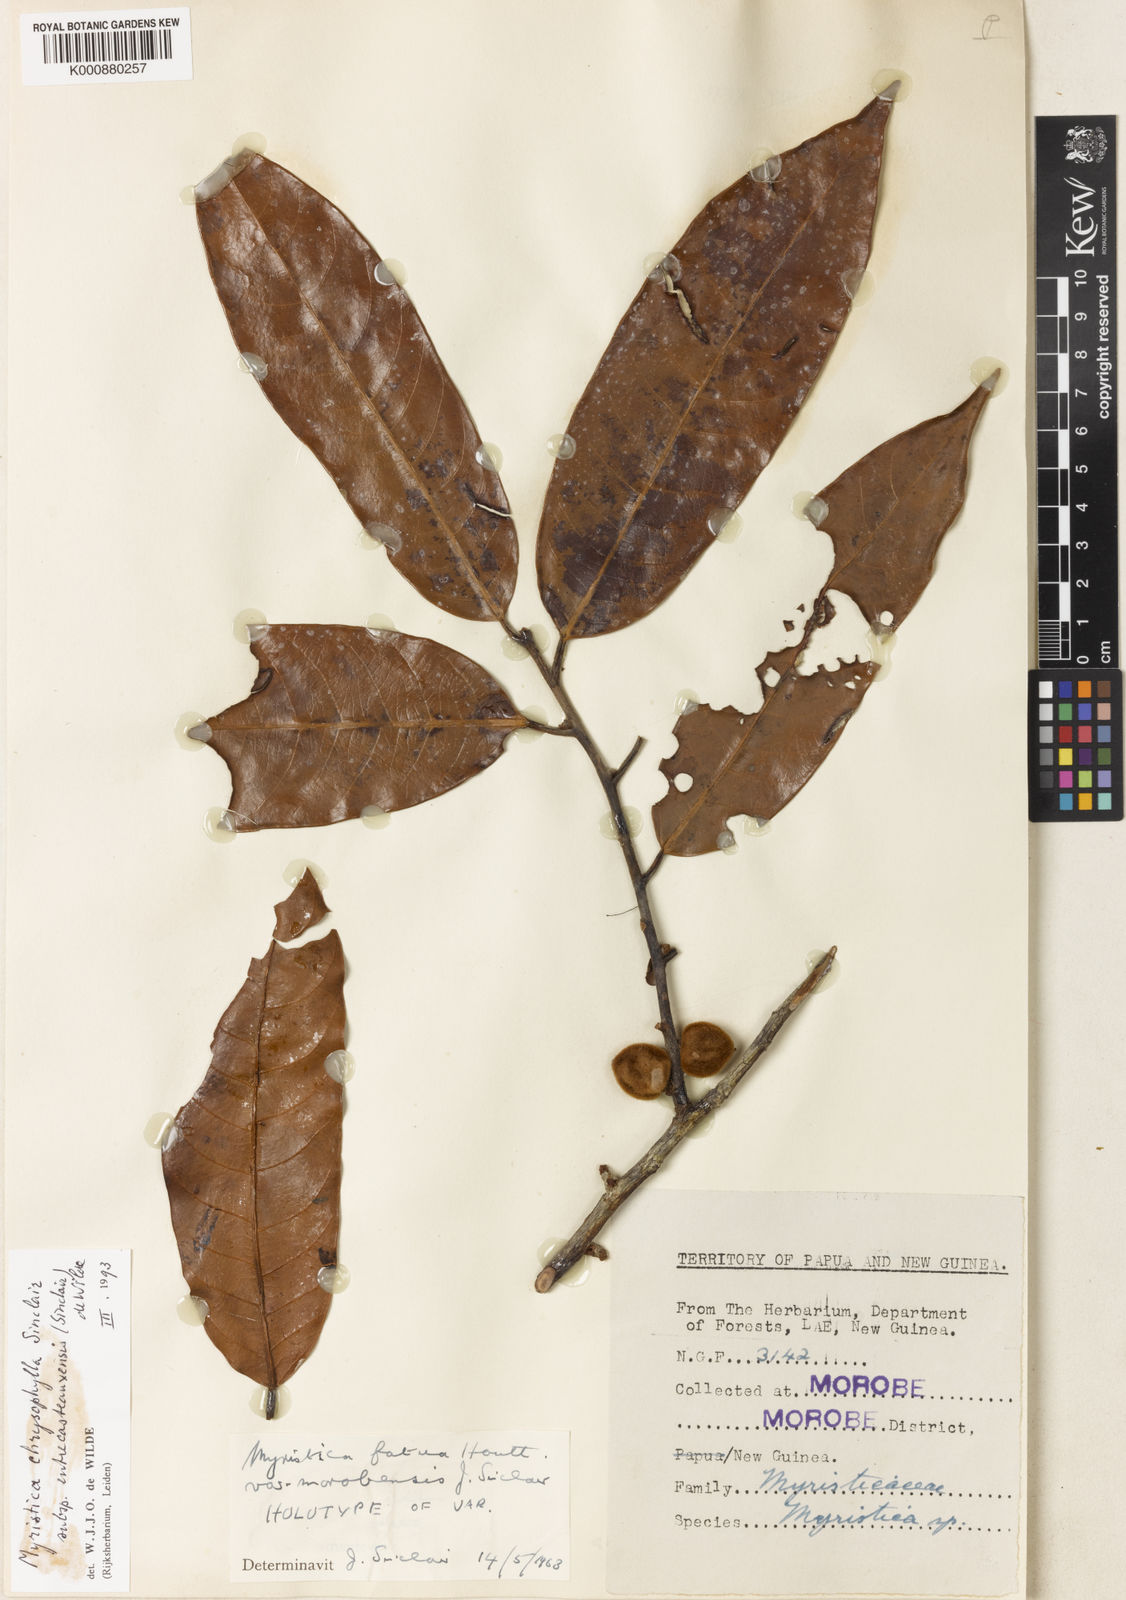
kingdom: Plantae
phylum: Tracheophyta
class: Magnoliopsida
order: Magnoliales
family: Myristicaceae
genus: Myristica
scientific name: Myristica chrysophylla
